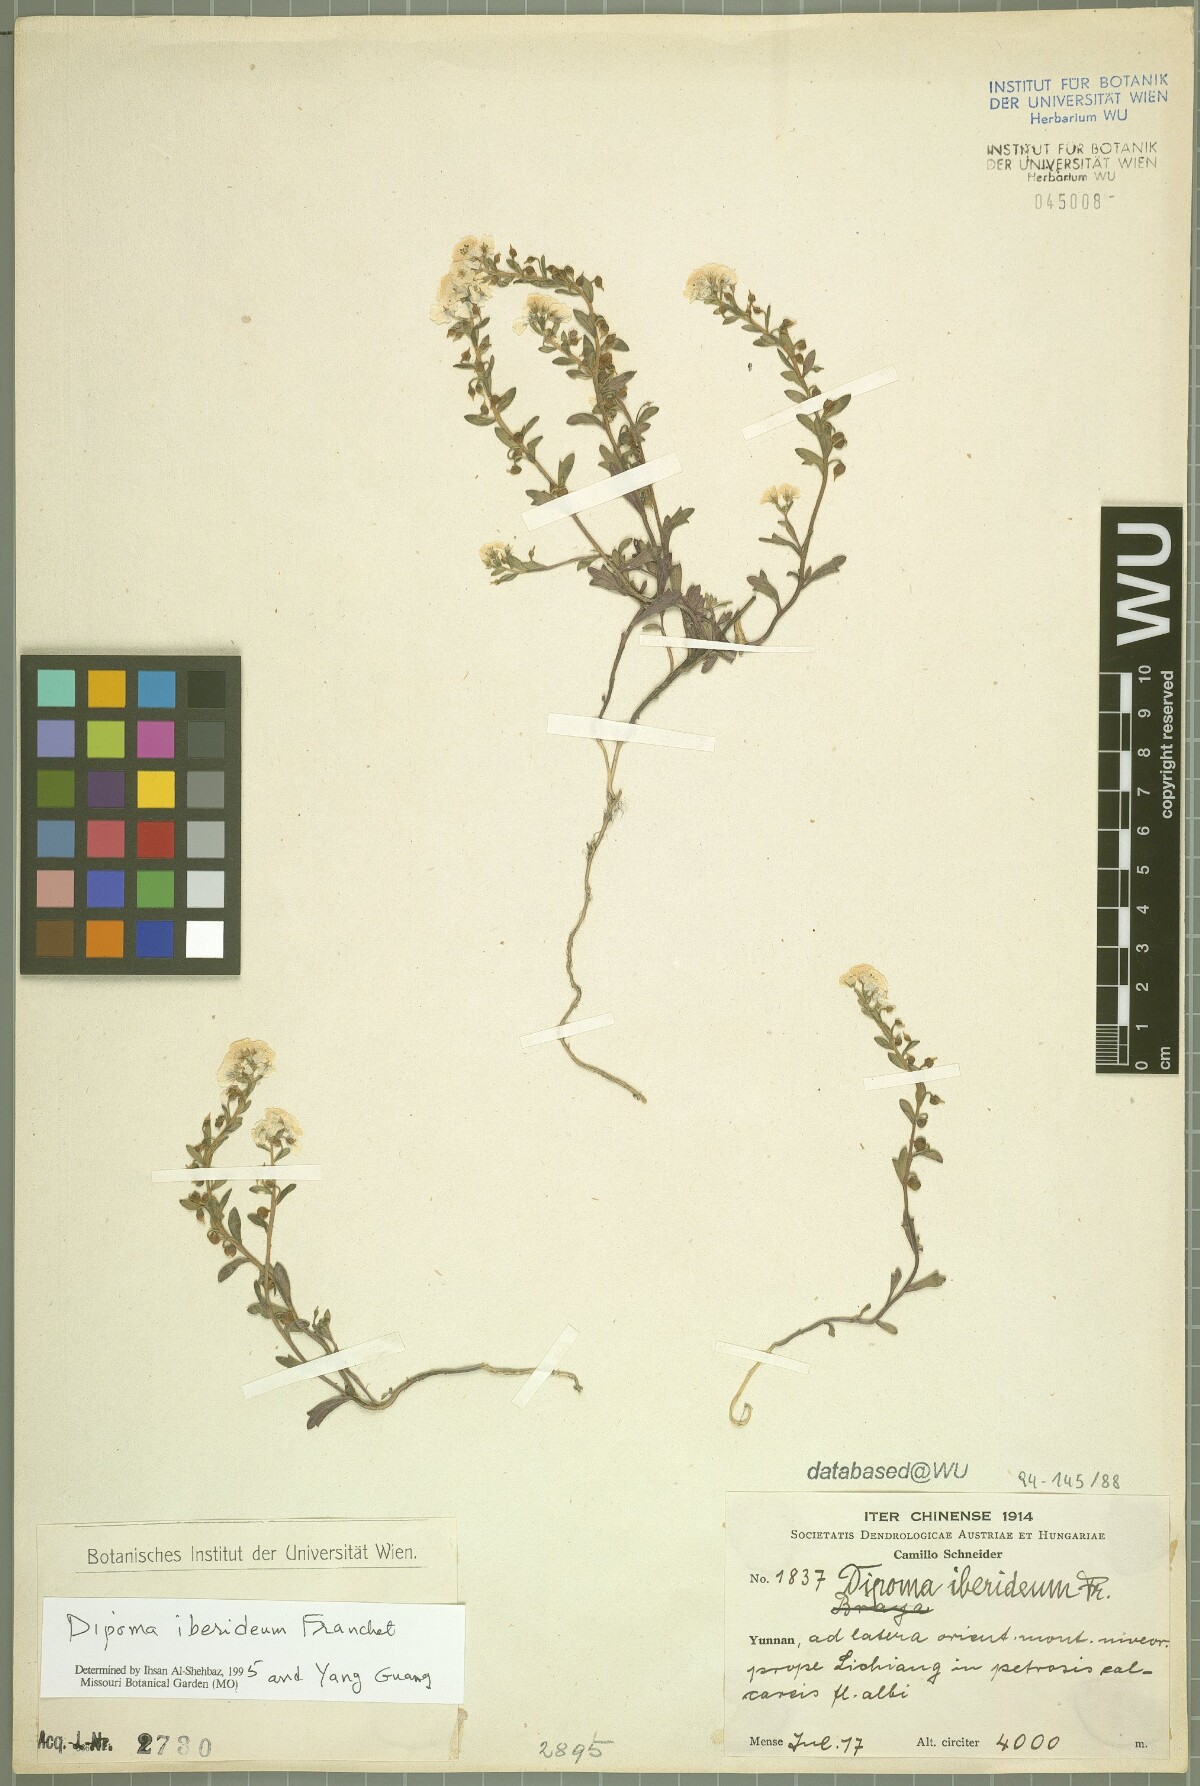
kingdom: Plantae
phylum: Tracheophyta
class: Magnoliopsida
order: Brassicales
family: Brassicaceae
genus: Dipoma
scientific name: Dipoma iberideum
